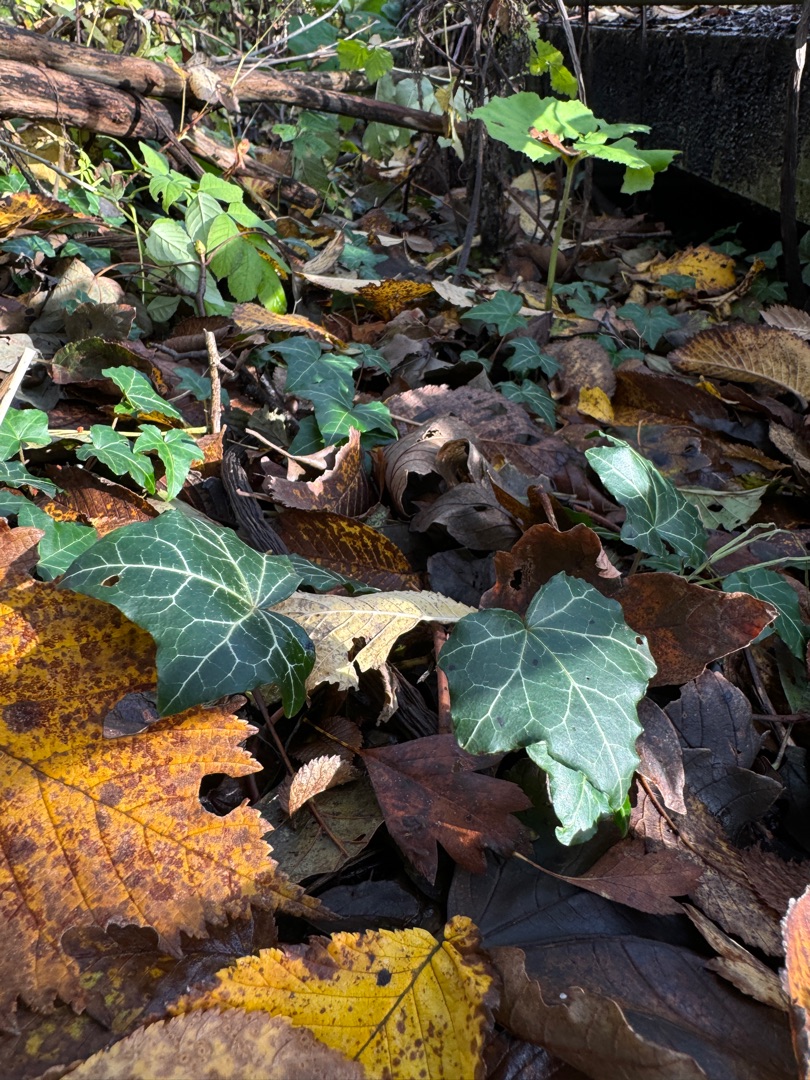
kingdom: Plantae
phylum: Tracheophyta
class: Magnoliopsida
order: Apiales
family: Araliaceae
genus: Hedera
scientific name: Hedera helix
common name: Vedbend
